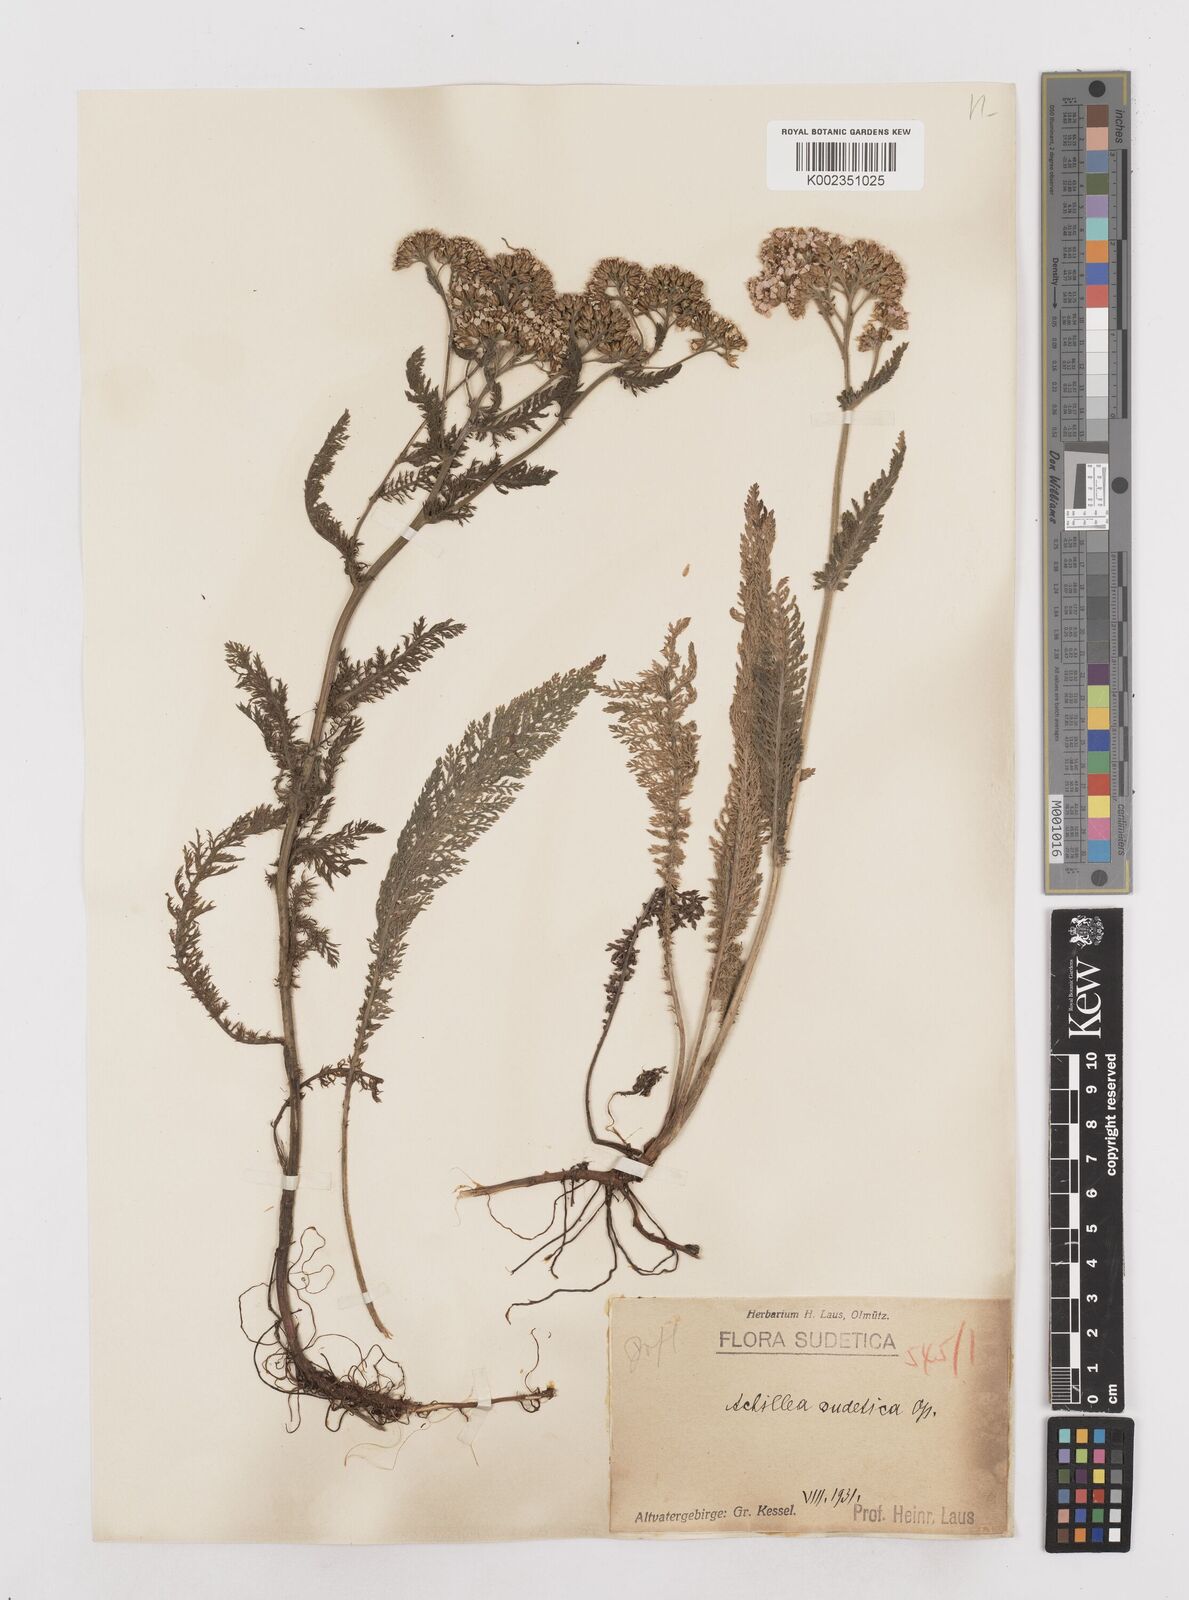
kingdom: Plantae
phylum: Tracheophyta
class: Magnoliopsida
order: Asterales
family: Asteraceae
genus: Achillea
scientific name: Achillea millefolium
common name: Yarrow
